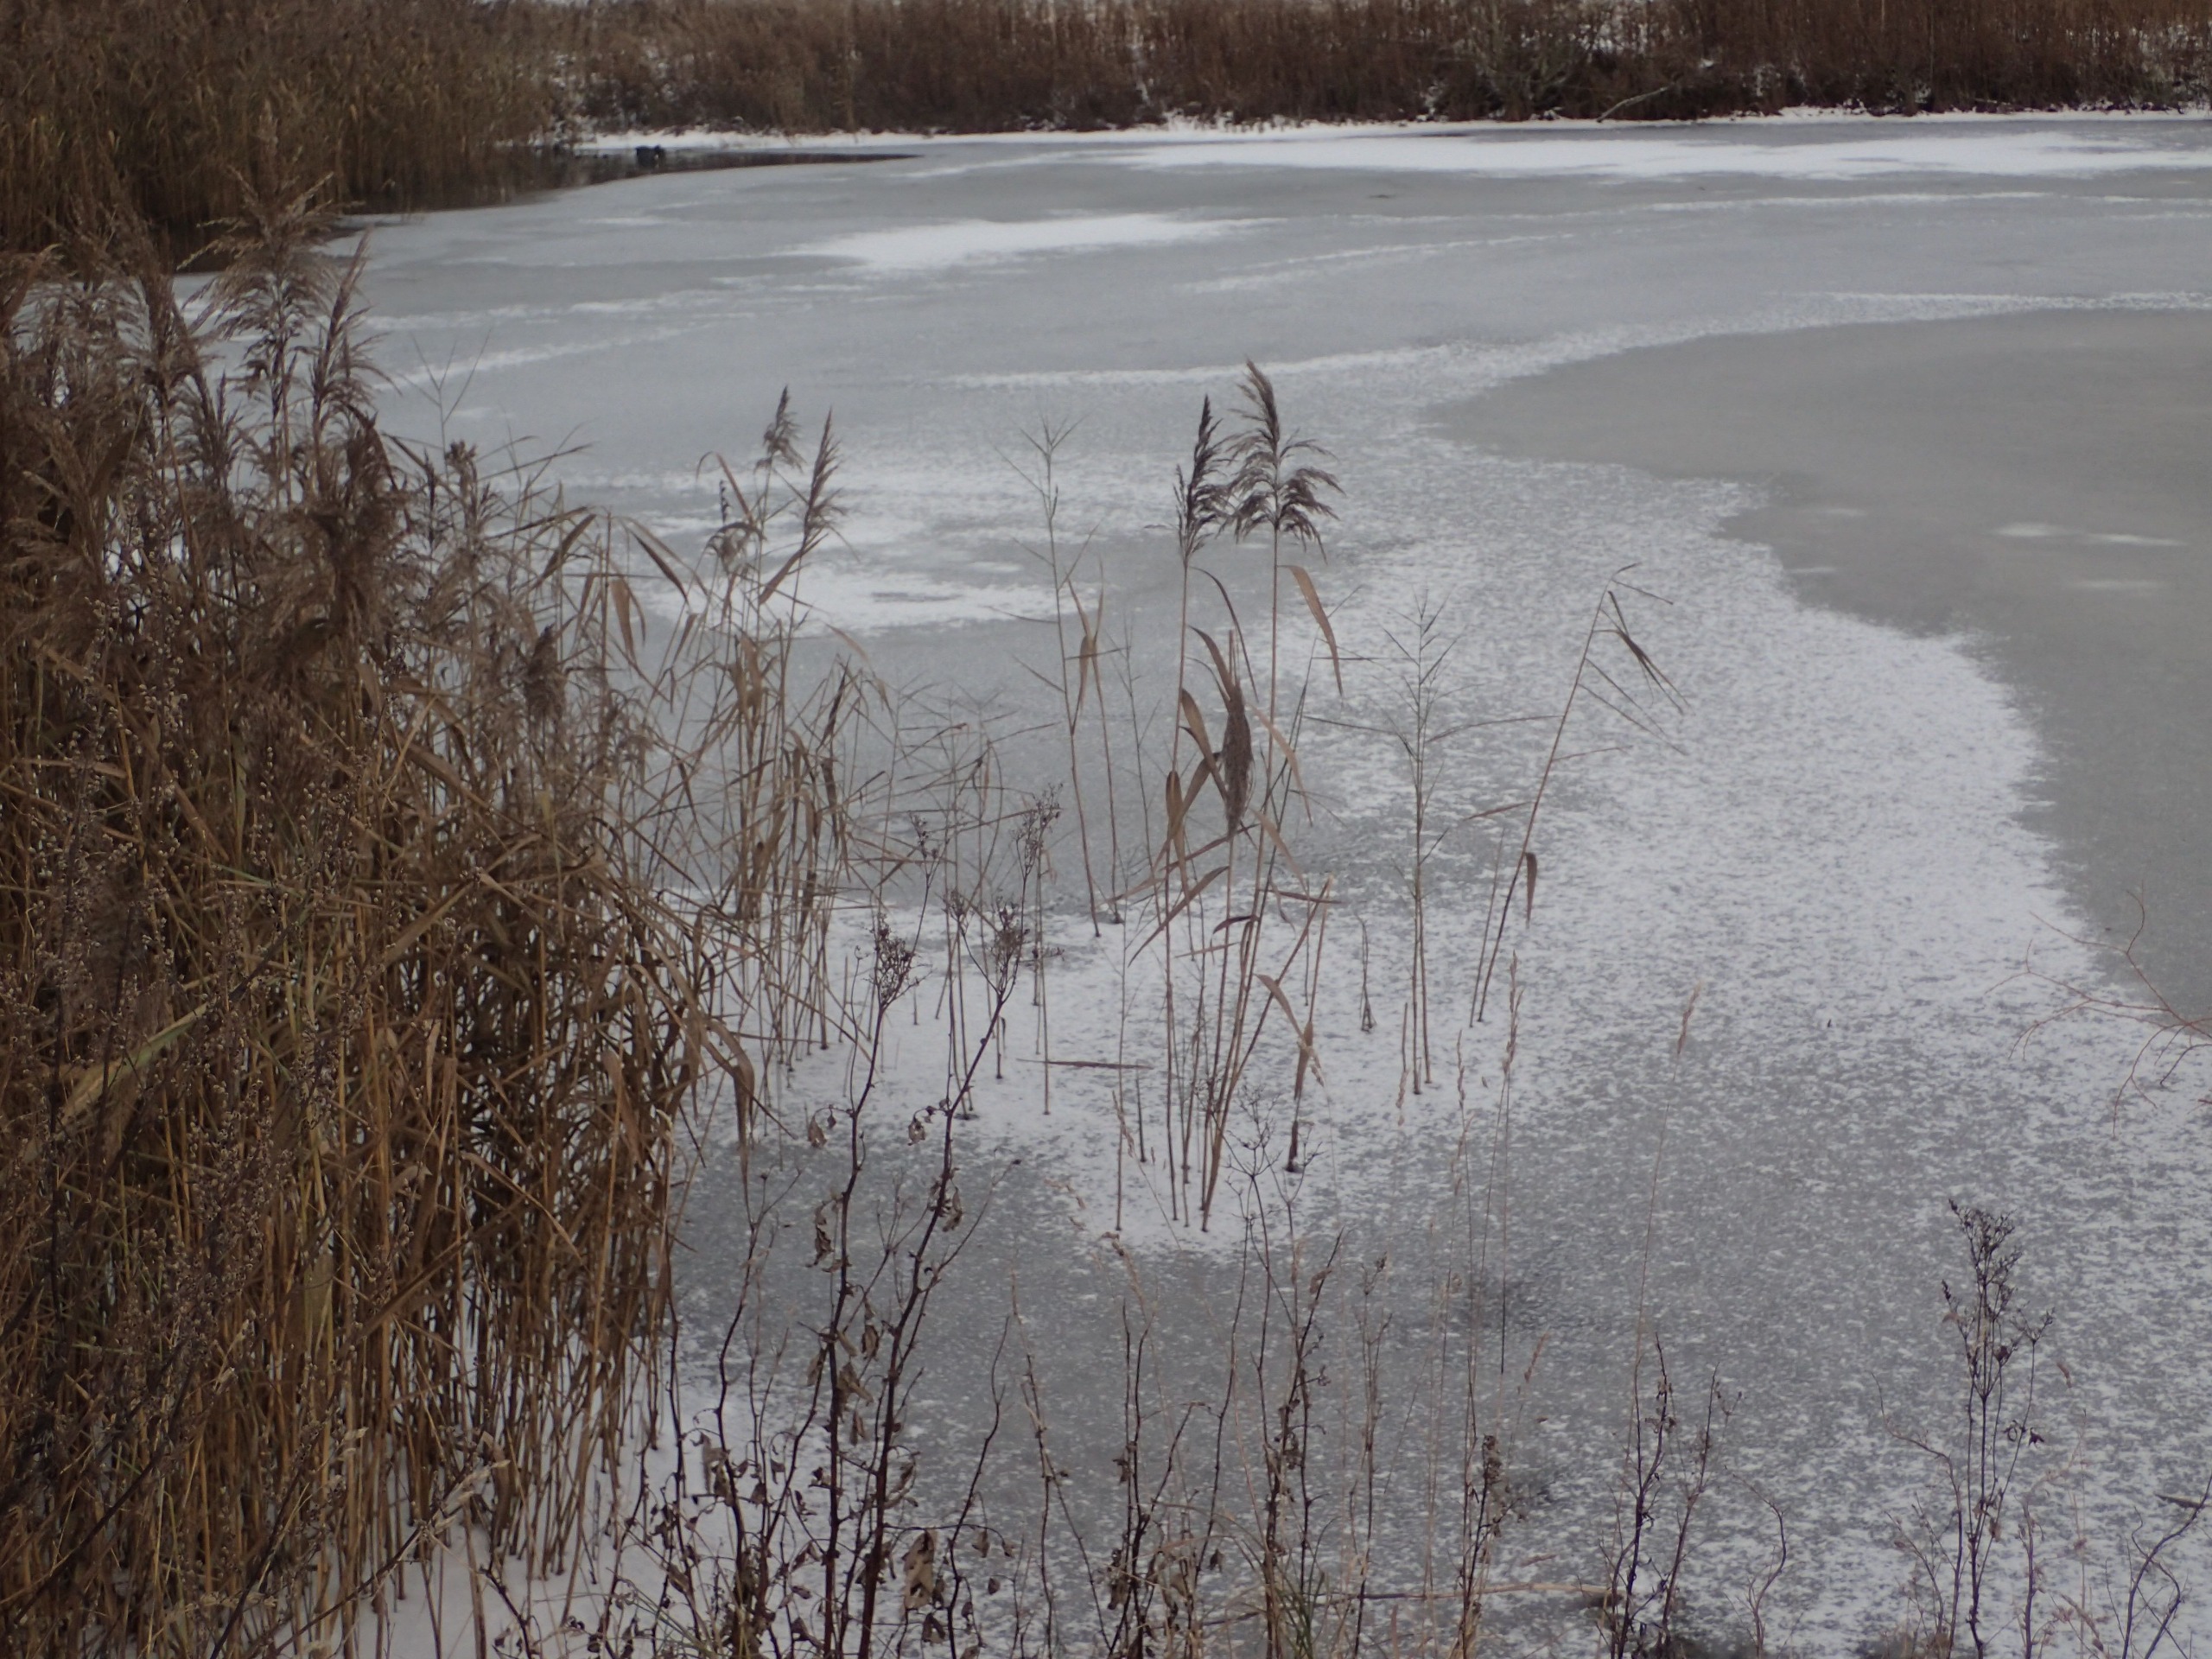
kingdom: Plantae
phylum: Tracheophyta
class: Liliopsida
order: Poales
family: Poaceae
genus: Phragmites
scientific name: Phragmites australis
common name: Tagrør
